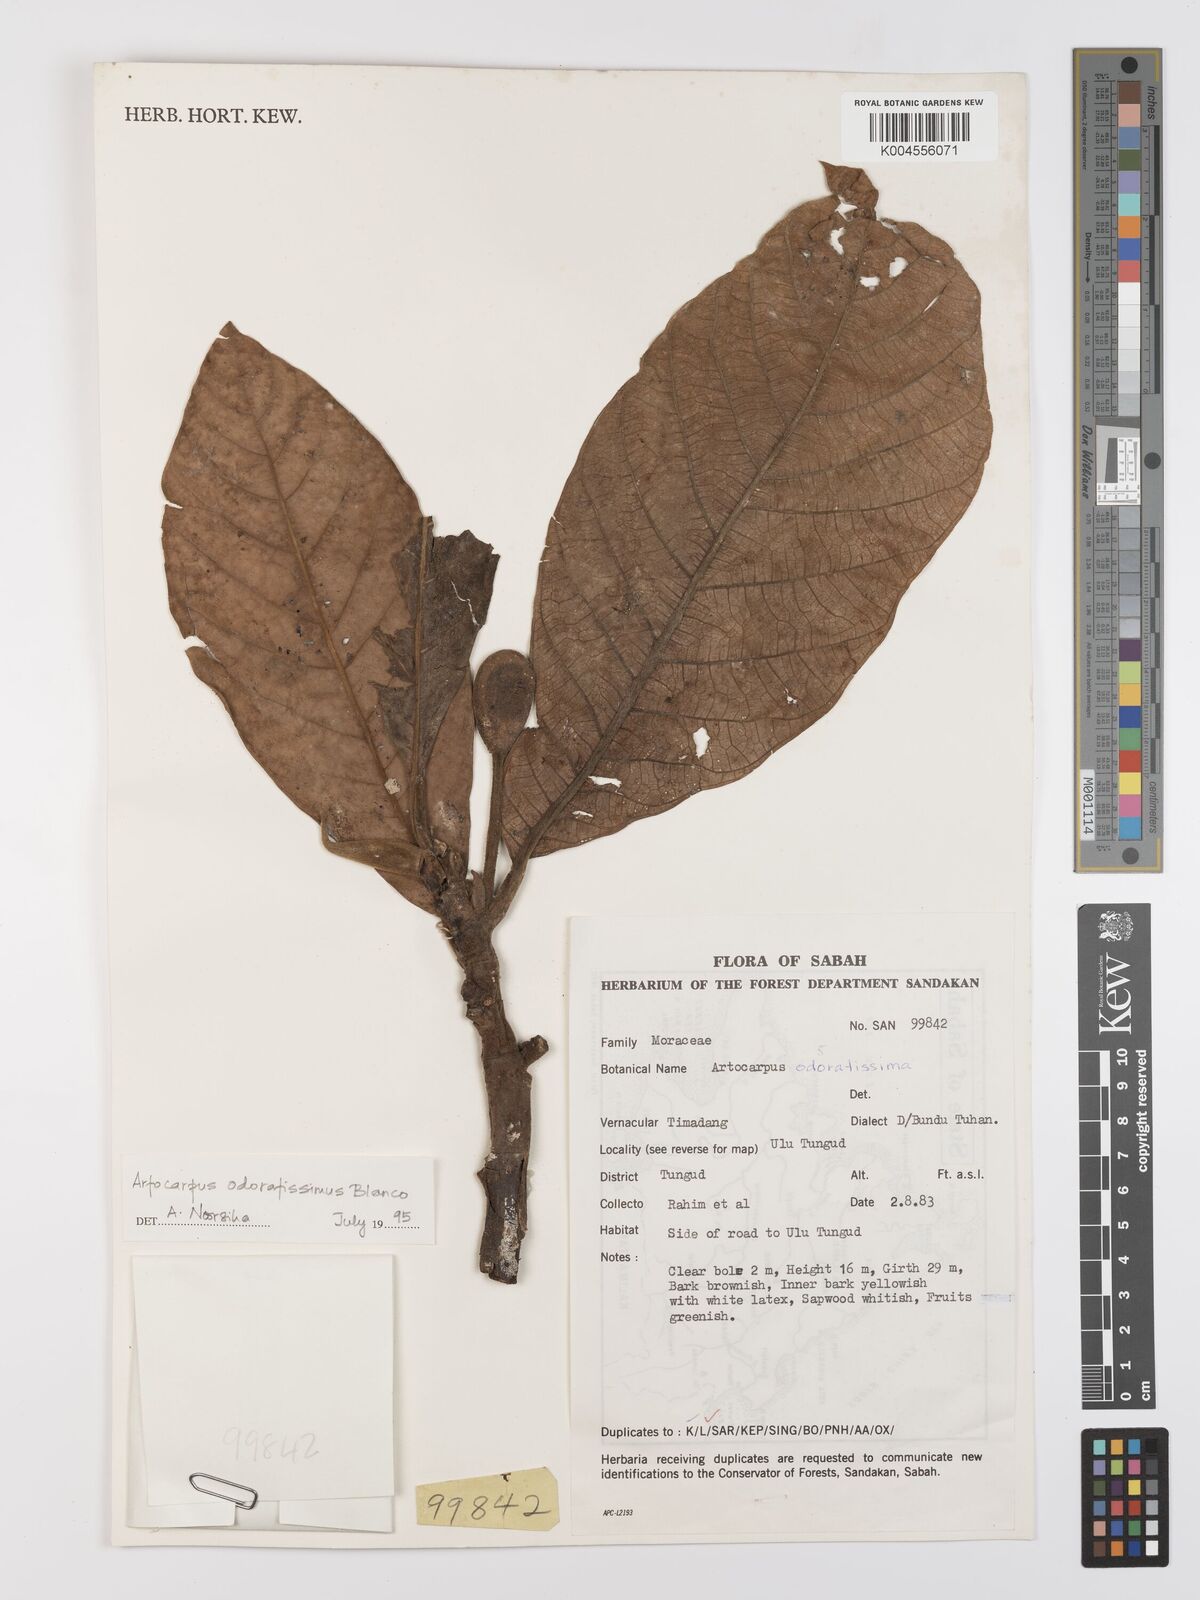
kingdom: Plantae
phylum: Tracheophyta
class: Magnoliopsida
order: Rosales
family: Moraceae
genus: Artocarpus
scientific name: Artocarpus odoratissimus
